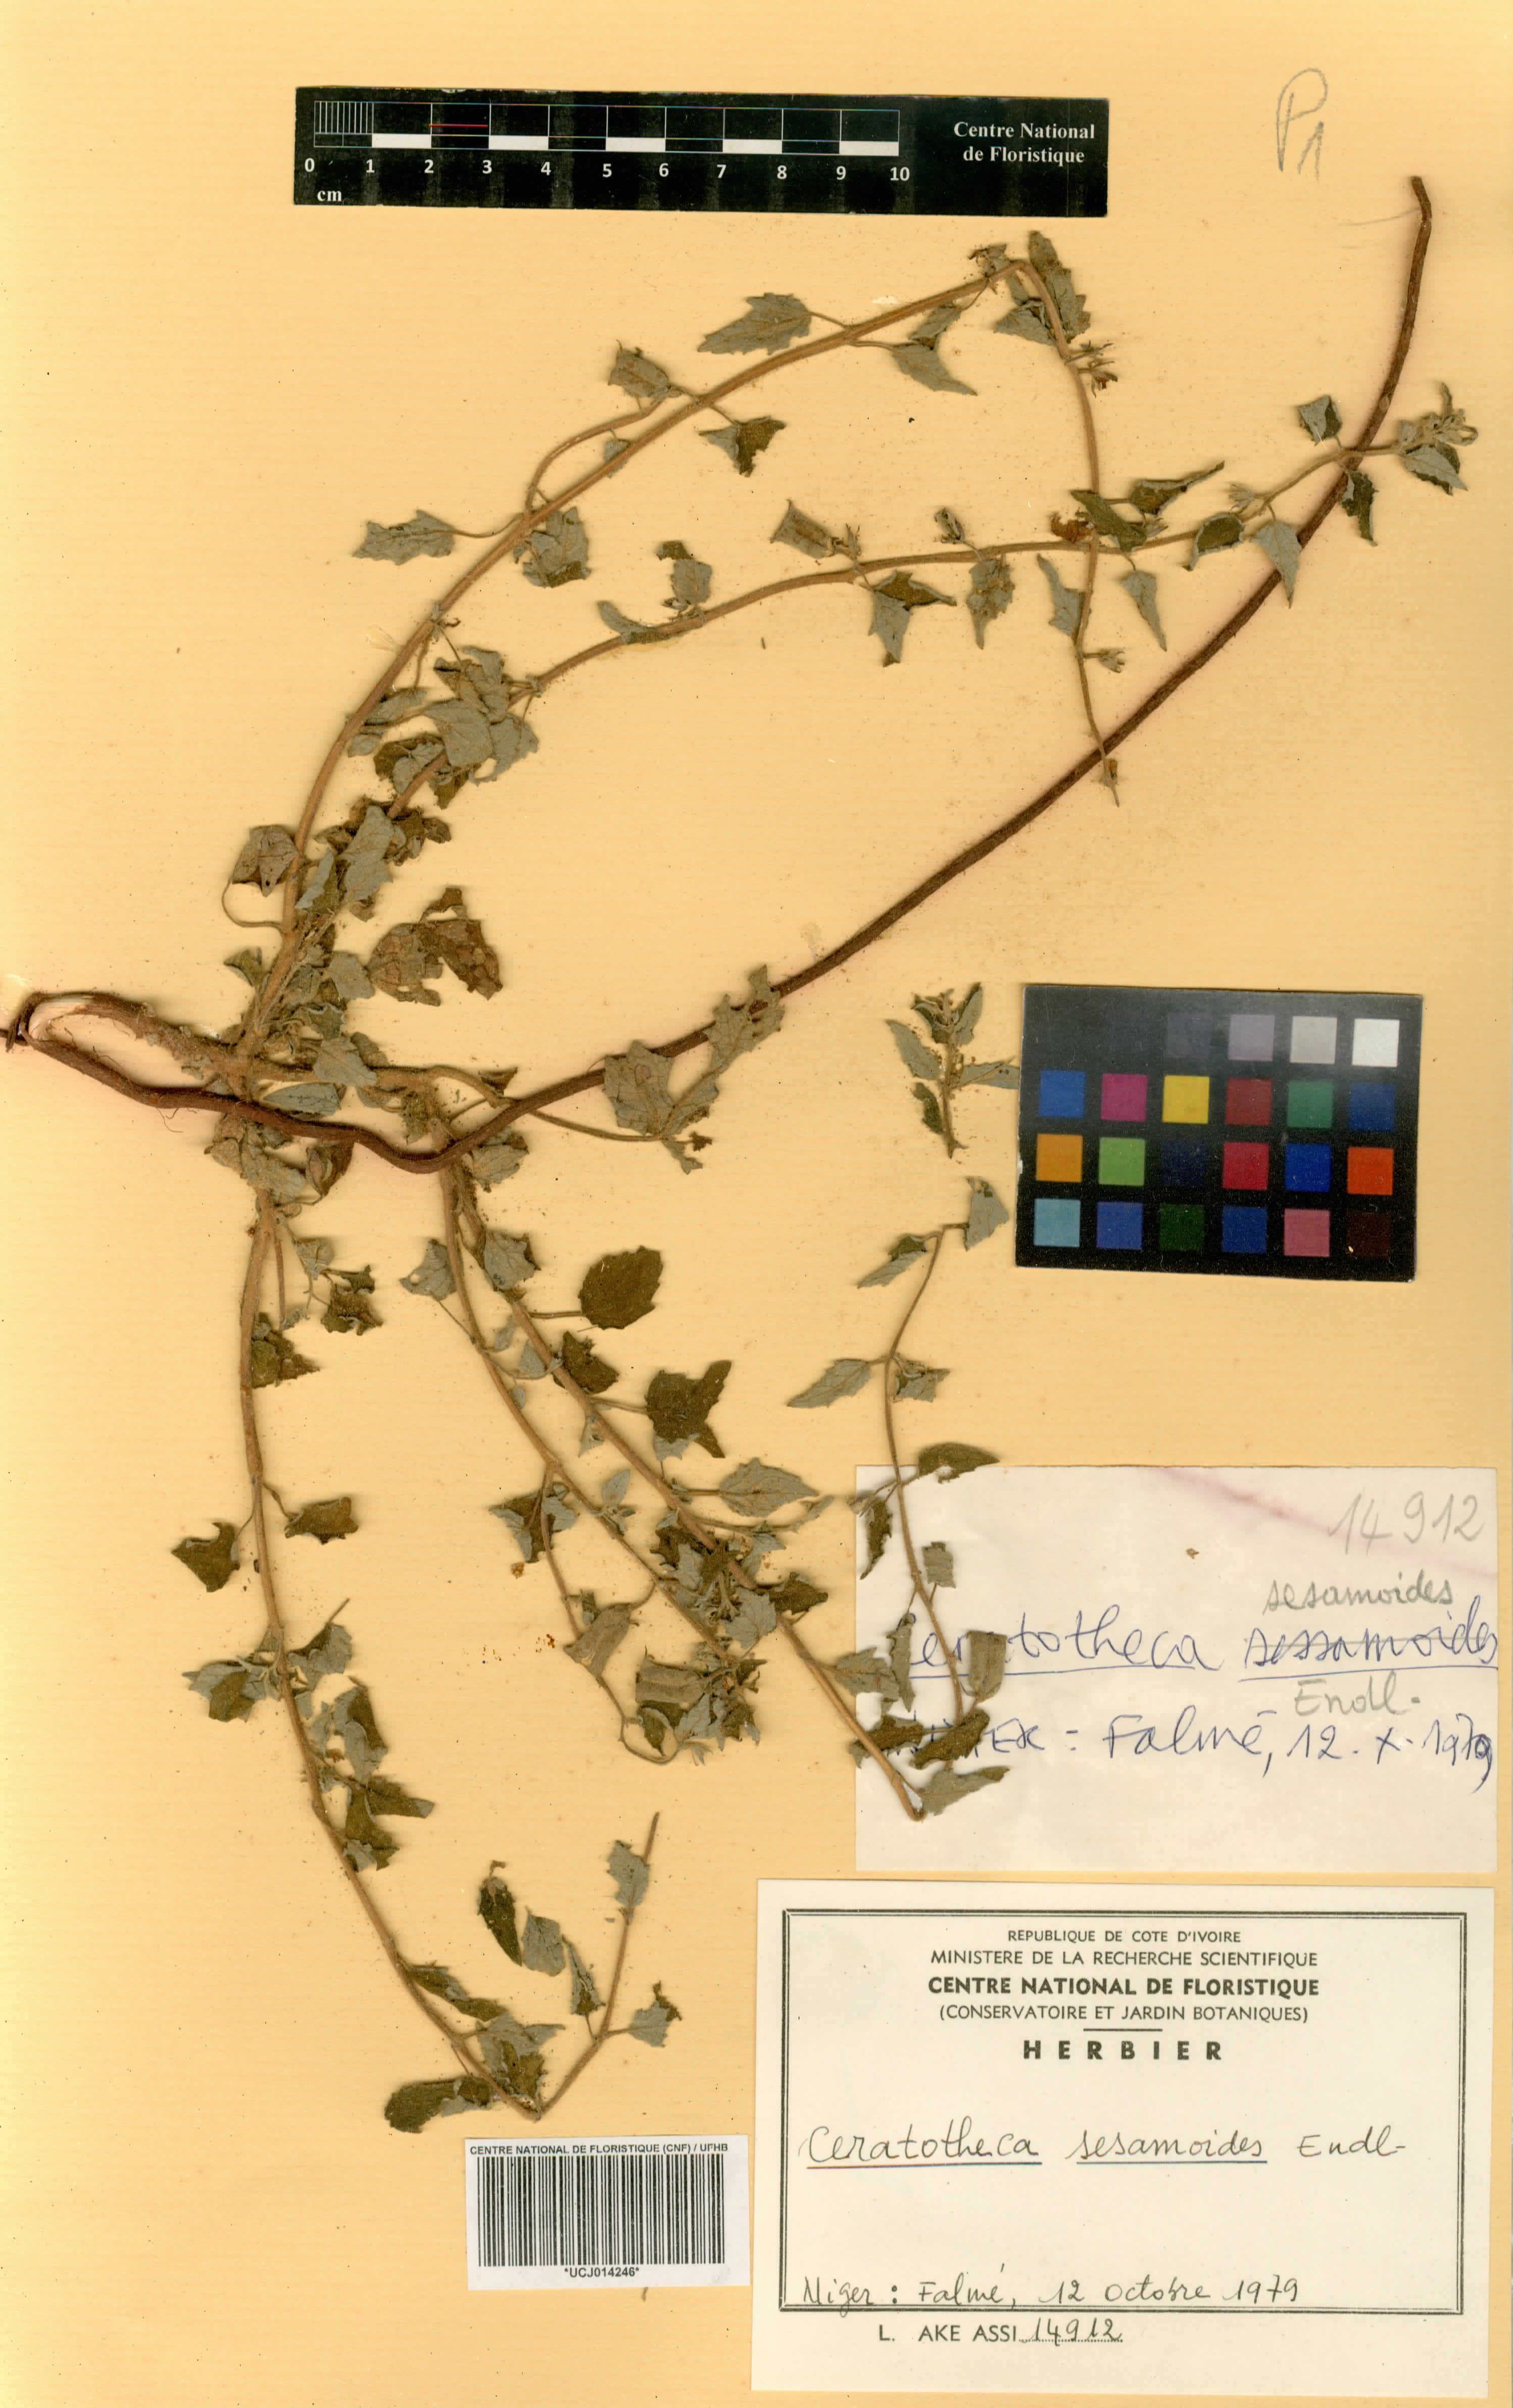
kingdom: Plantae
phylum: Tracheophyta
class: Magnoliopsida
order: Lamiales
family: Pedaliaceae
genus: Sesamum
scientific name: Sesamum sesamoides
